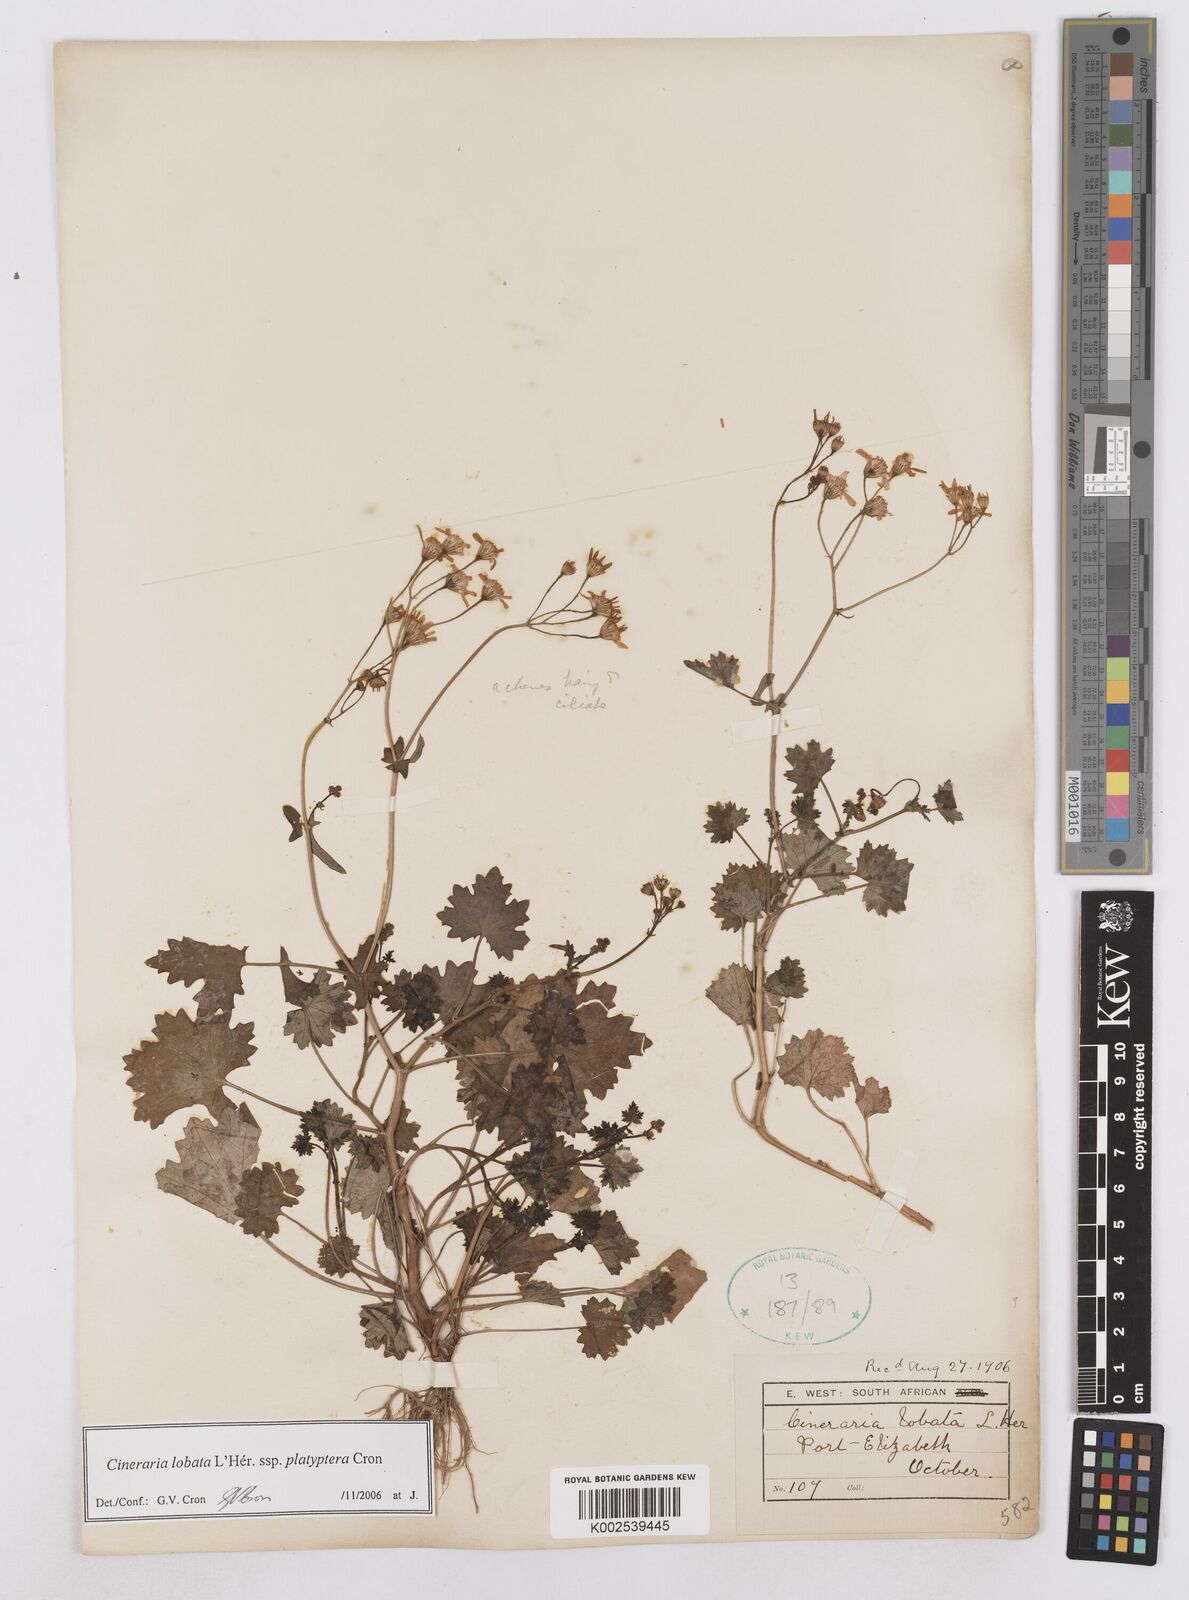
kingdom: Plantae
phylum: Tracheophyta
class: Magnoliopsida
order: Asterales
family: Asteraceae
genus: Cineraria
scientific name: Cineraria lobata
